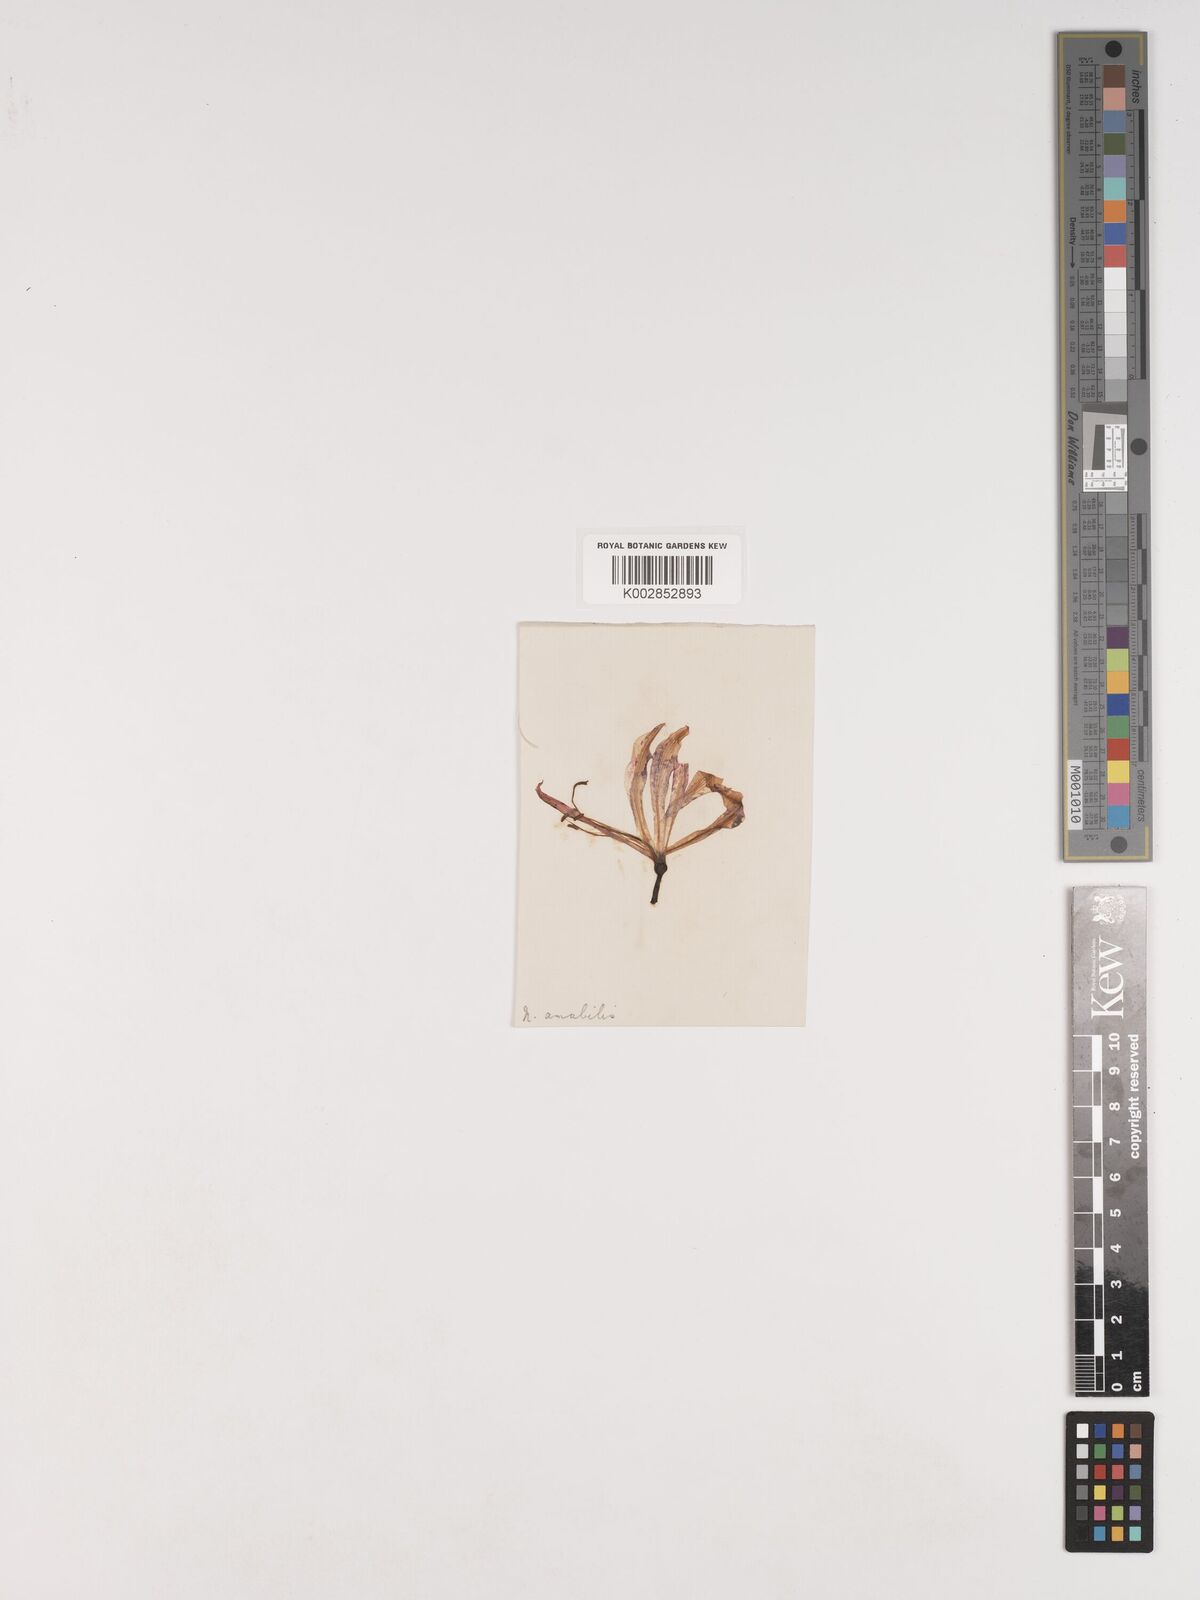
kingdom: Plantae
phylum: Tracheophyta
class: Liliopsida
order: Asparagales
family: Amaryllidaceae
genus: Nerine
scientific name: Nerine humilis
